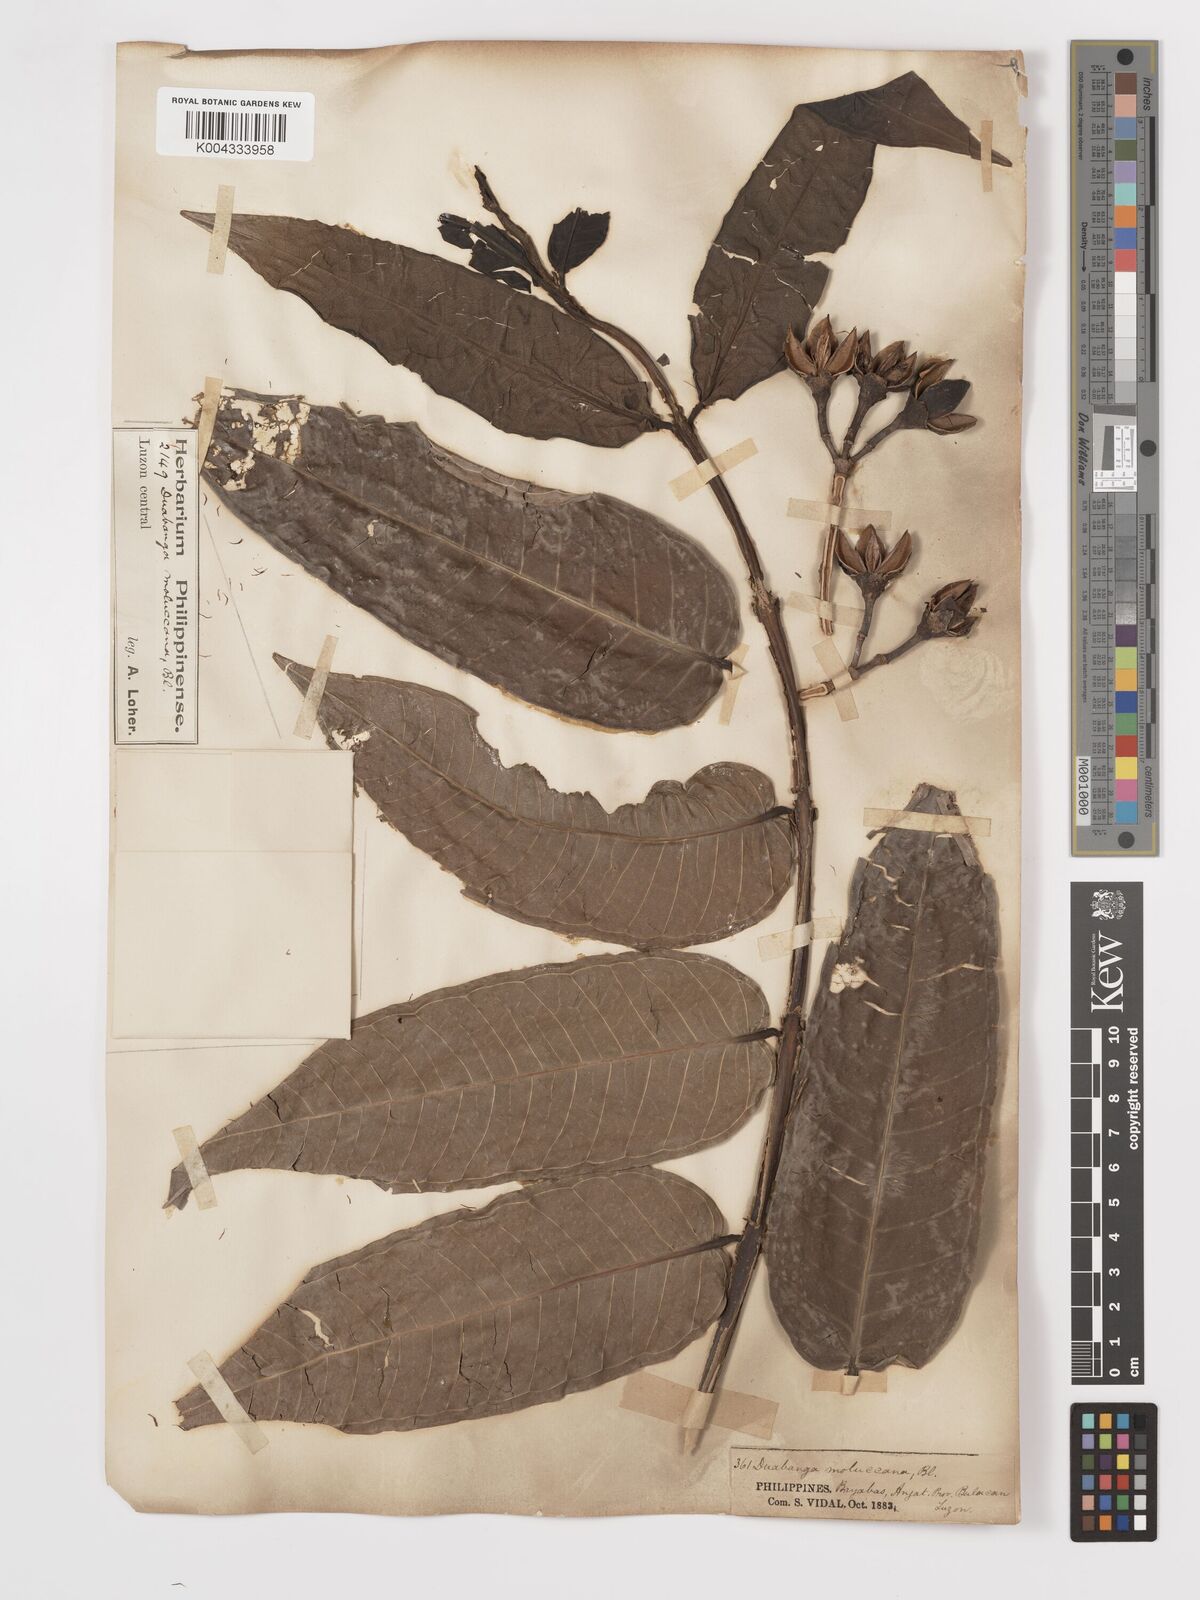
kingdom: Plantae
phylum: Tracheophyta
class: Magnoliopsida
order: Myrtales
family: Lythraceae
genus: Duabanga
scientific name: Duabanga moluccana
